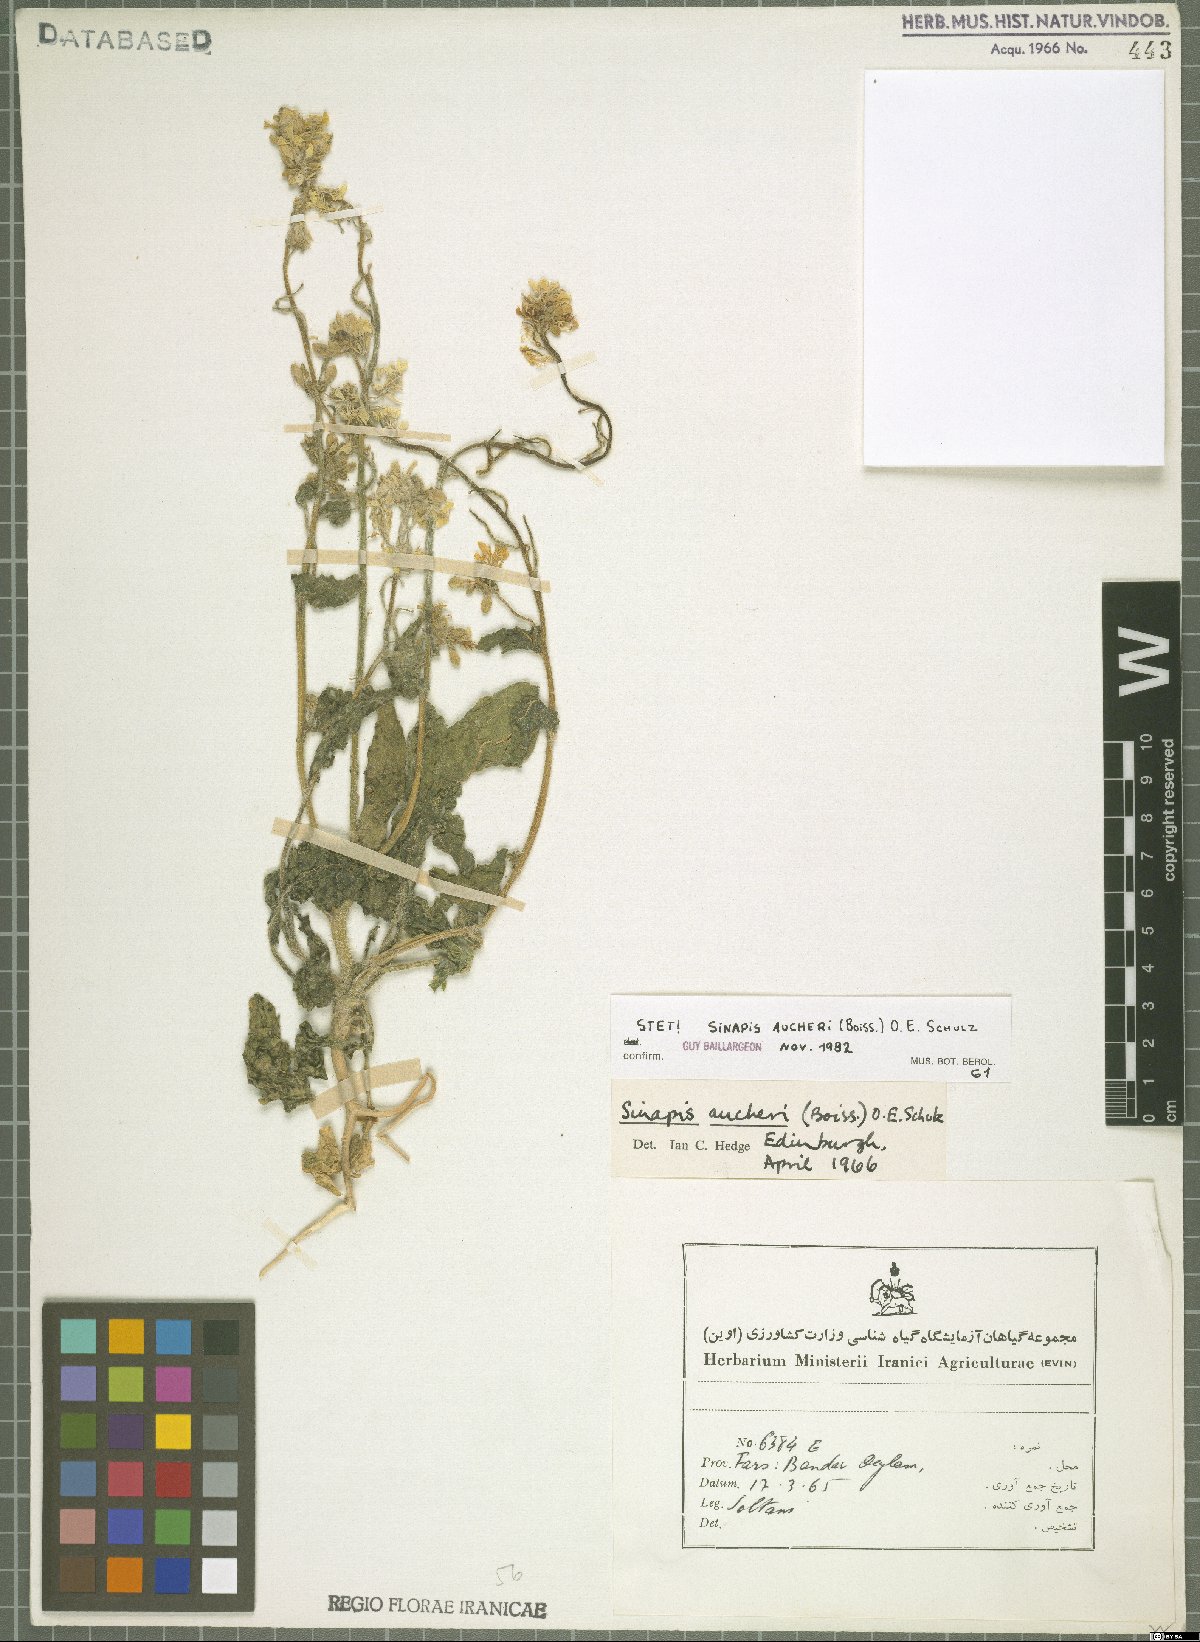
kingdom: Plantae
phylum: Tracheophyta
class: Magnoliopsida
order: Brassicales
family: Brassicaceae
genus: Brassica
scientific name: Brassica aucheri
